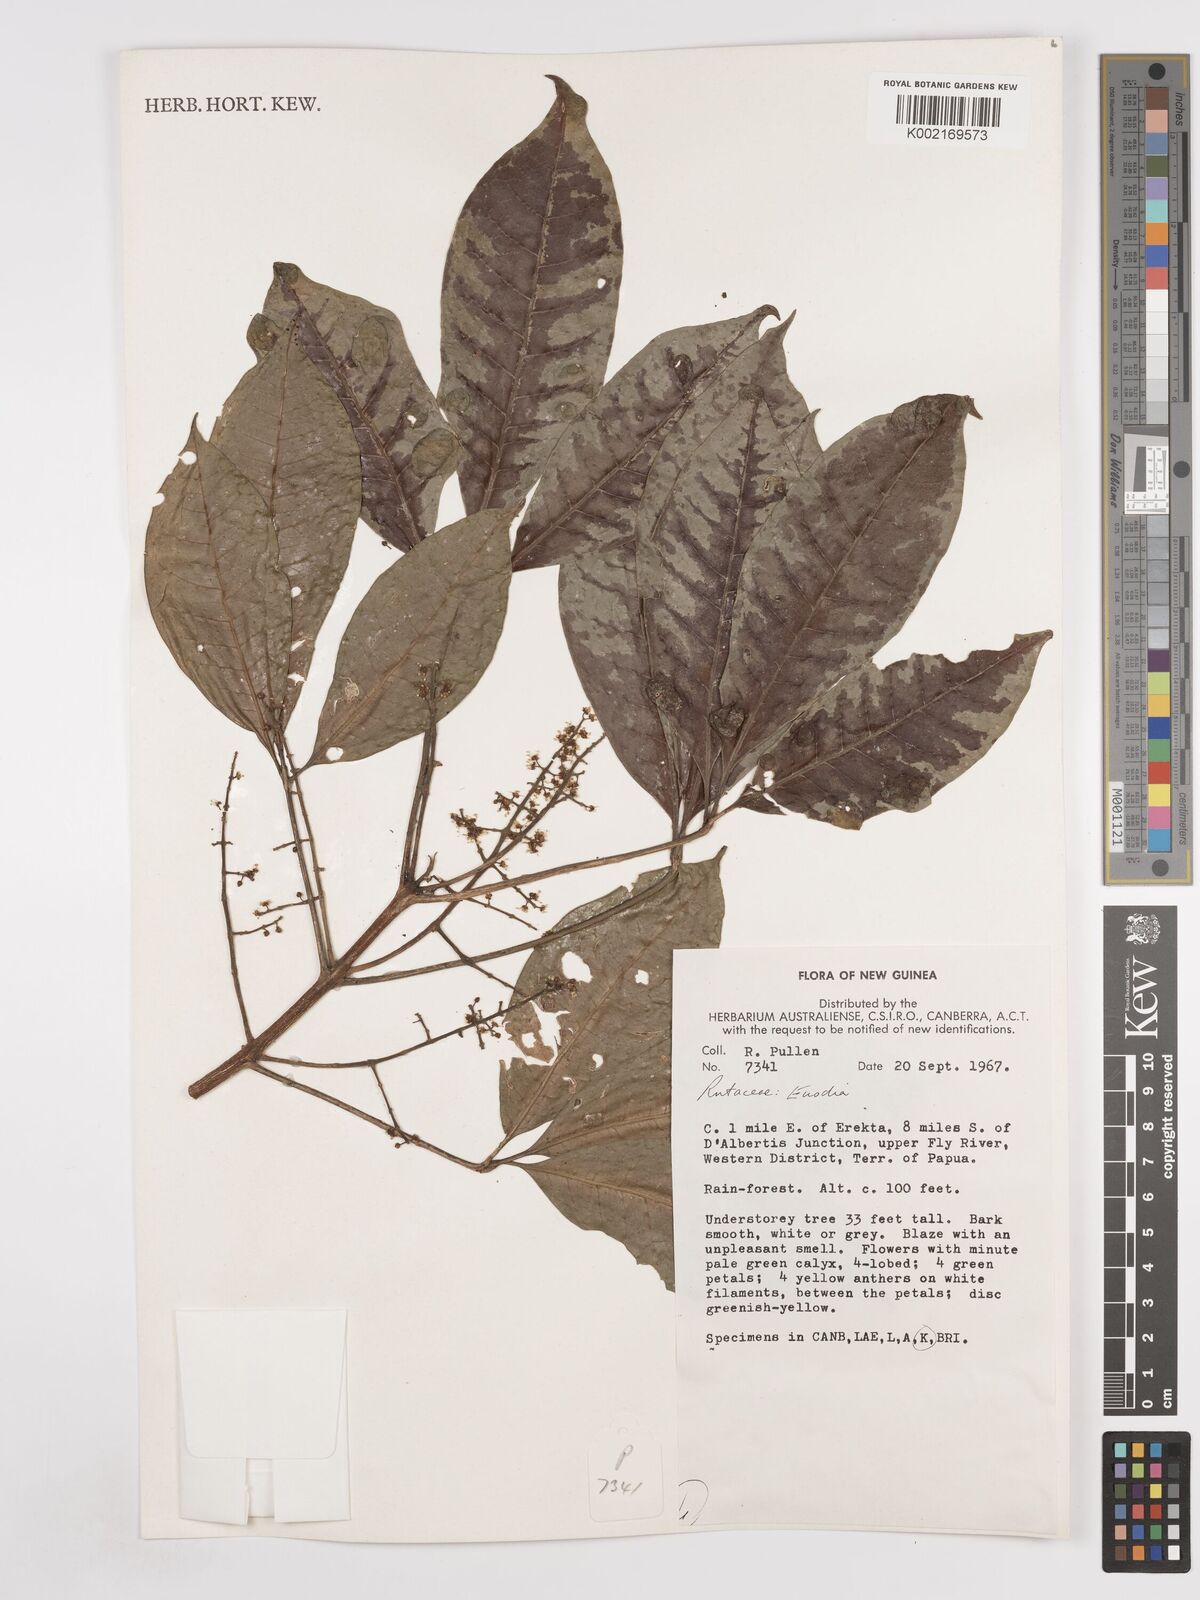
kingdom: Plantae
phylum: Tracheophyta
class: Magnoliopsida
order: Sapindales
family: Rutaceae
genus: Euodia
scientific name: Euodia
